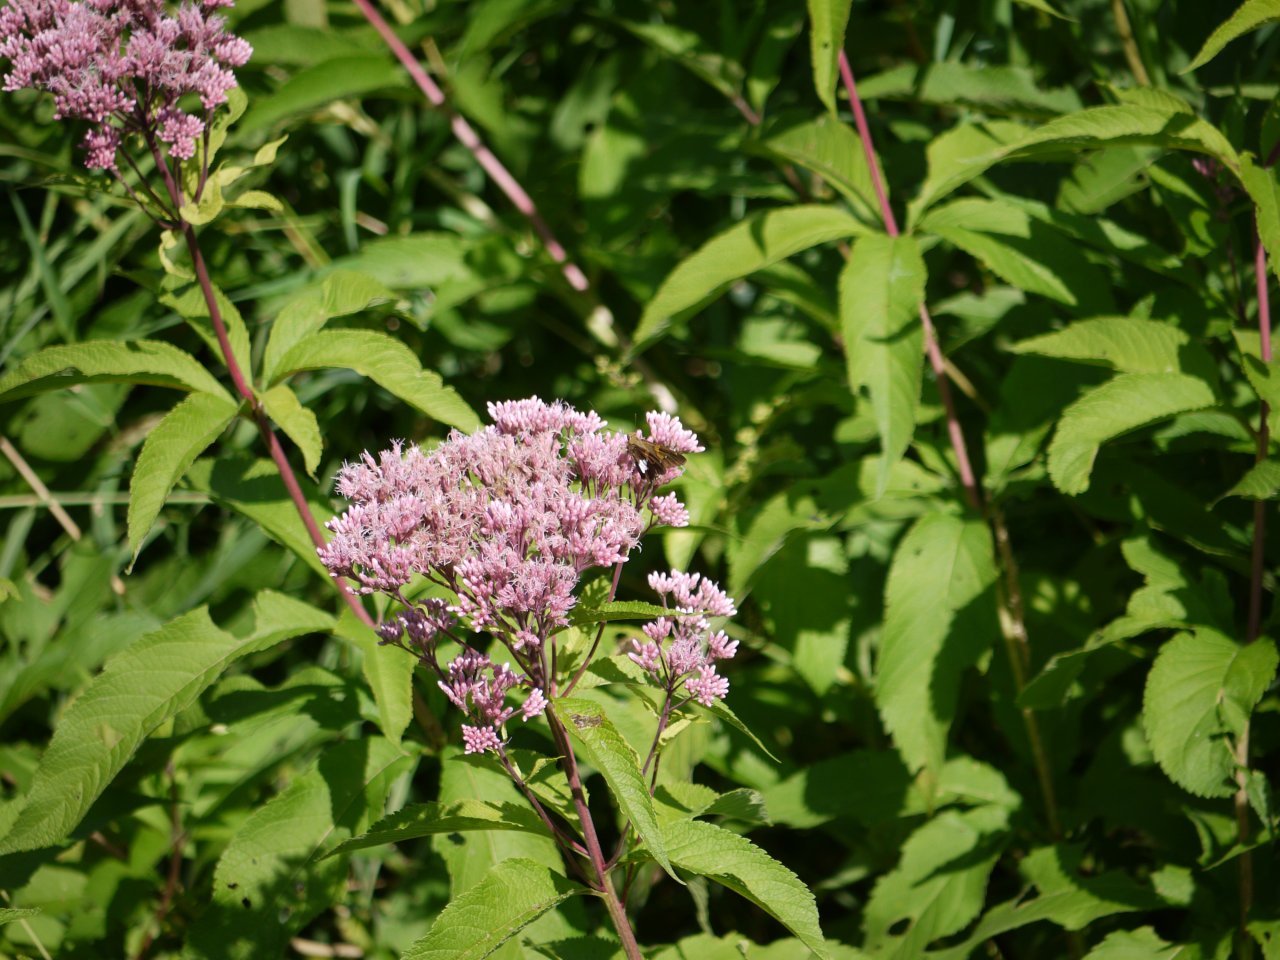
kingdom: Animalia
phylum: Arthropoda
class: Insecta
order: Lepidoptera
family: Hesperiidae
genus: Epargyreus
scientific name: Epargyreus clarus
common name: Silver-spotted Skipper
